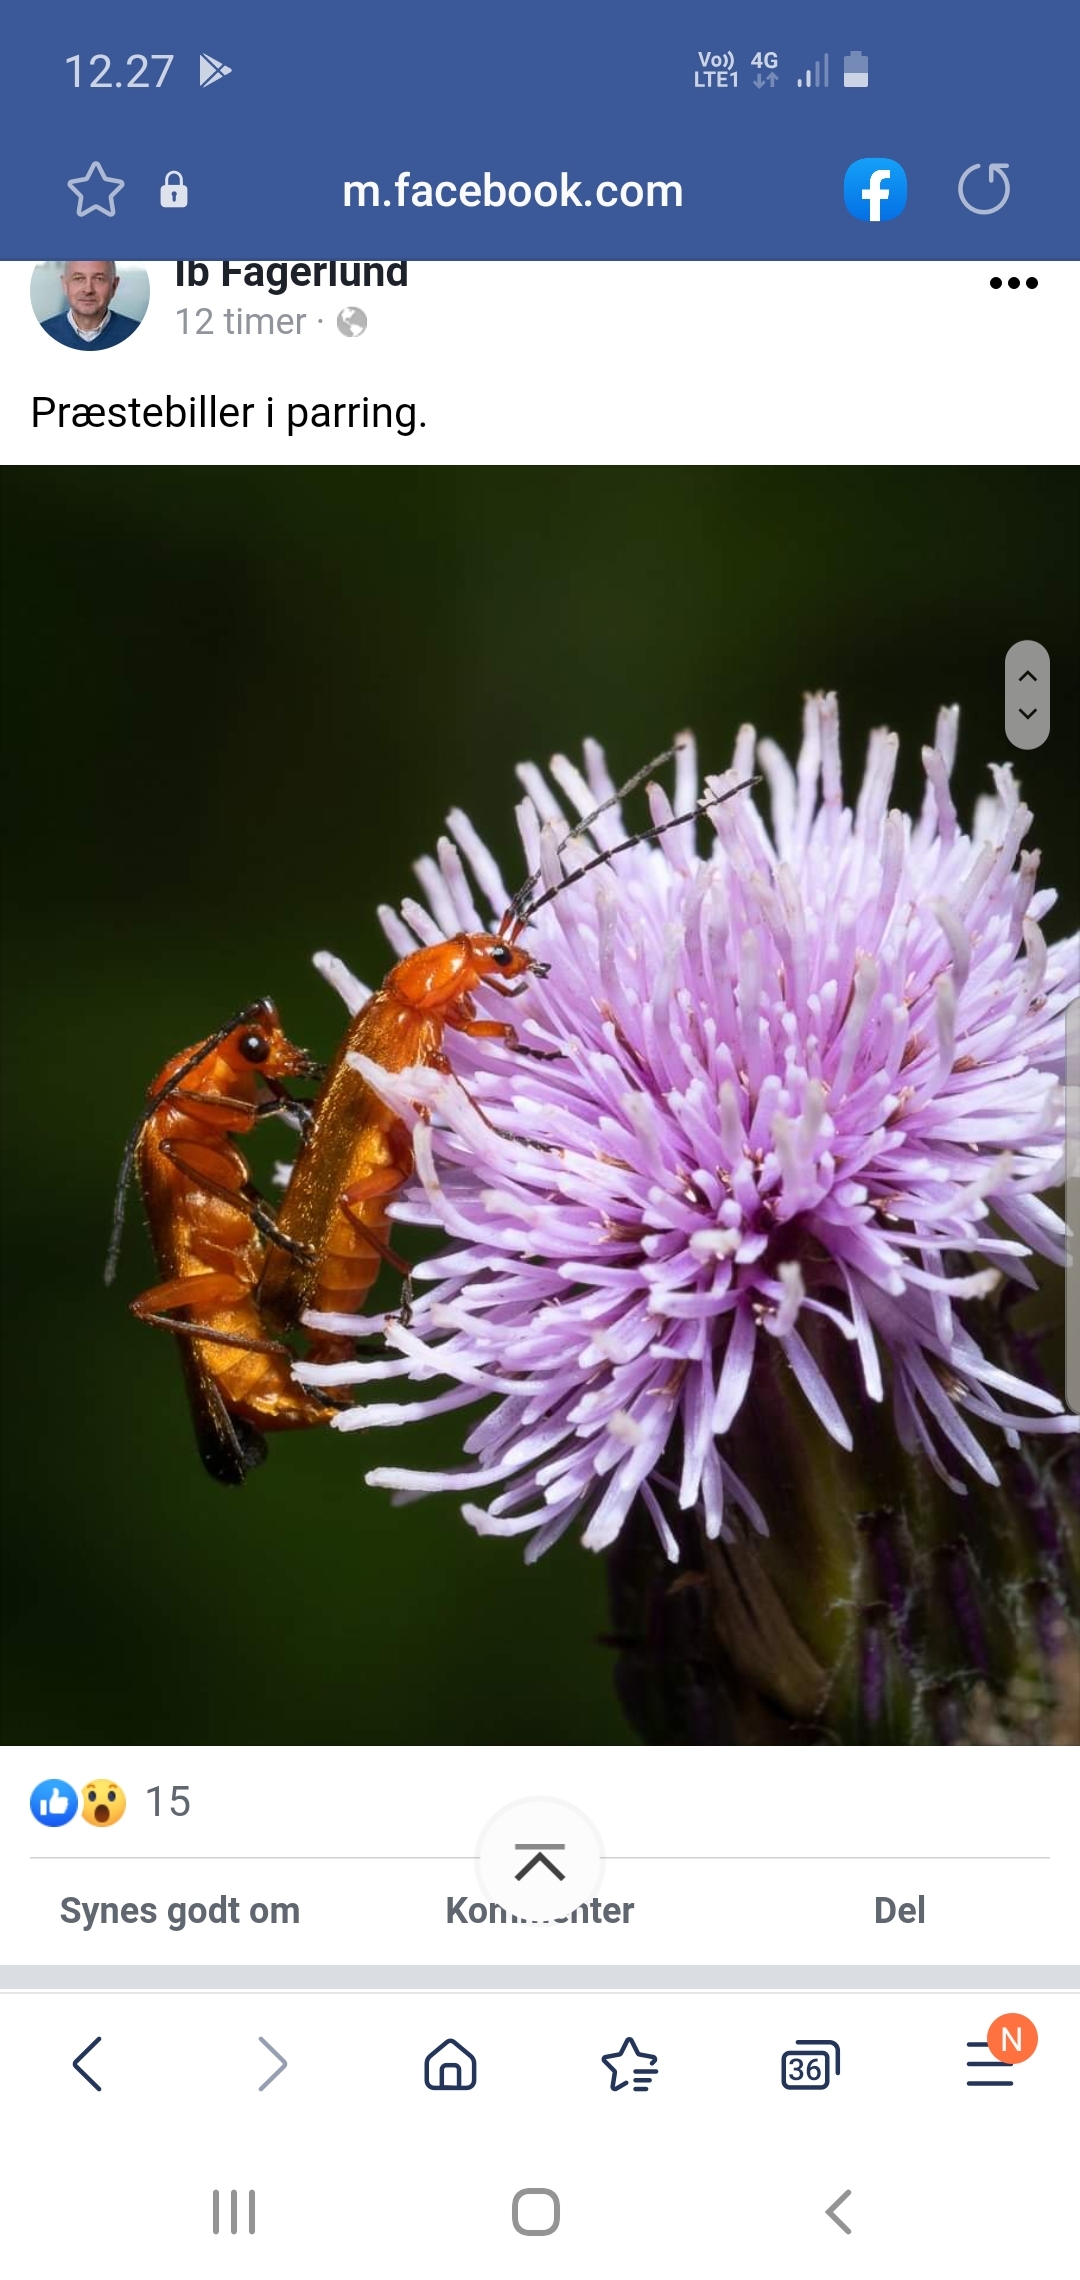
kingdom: Animalia
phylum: Arthropoda
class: Insecta
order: Coleoptera
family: Cantharidae
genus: Rhagonycha
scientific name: Rhagonycha fulva
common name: Præstebille
